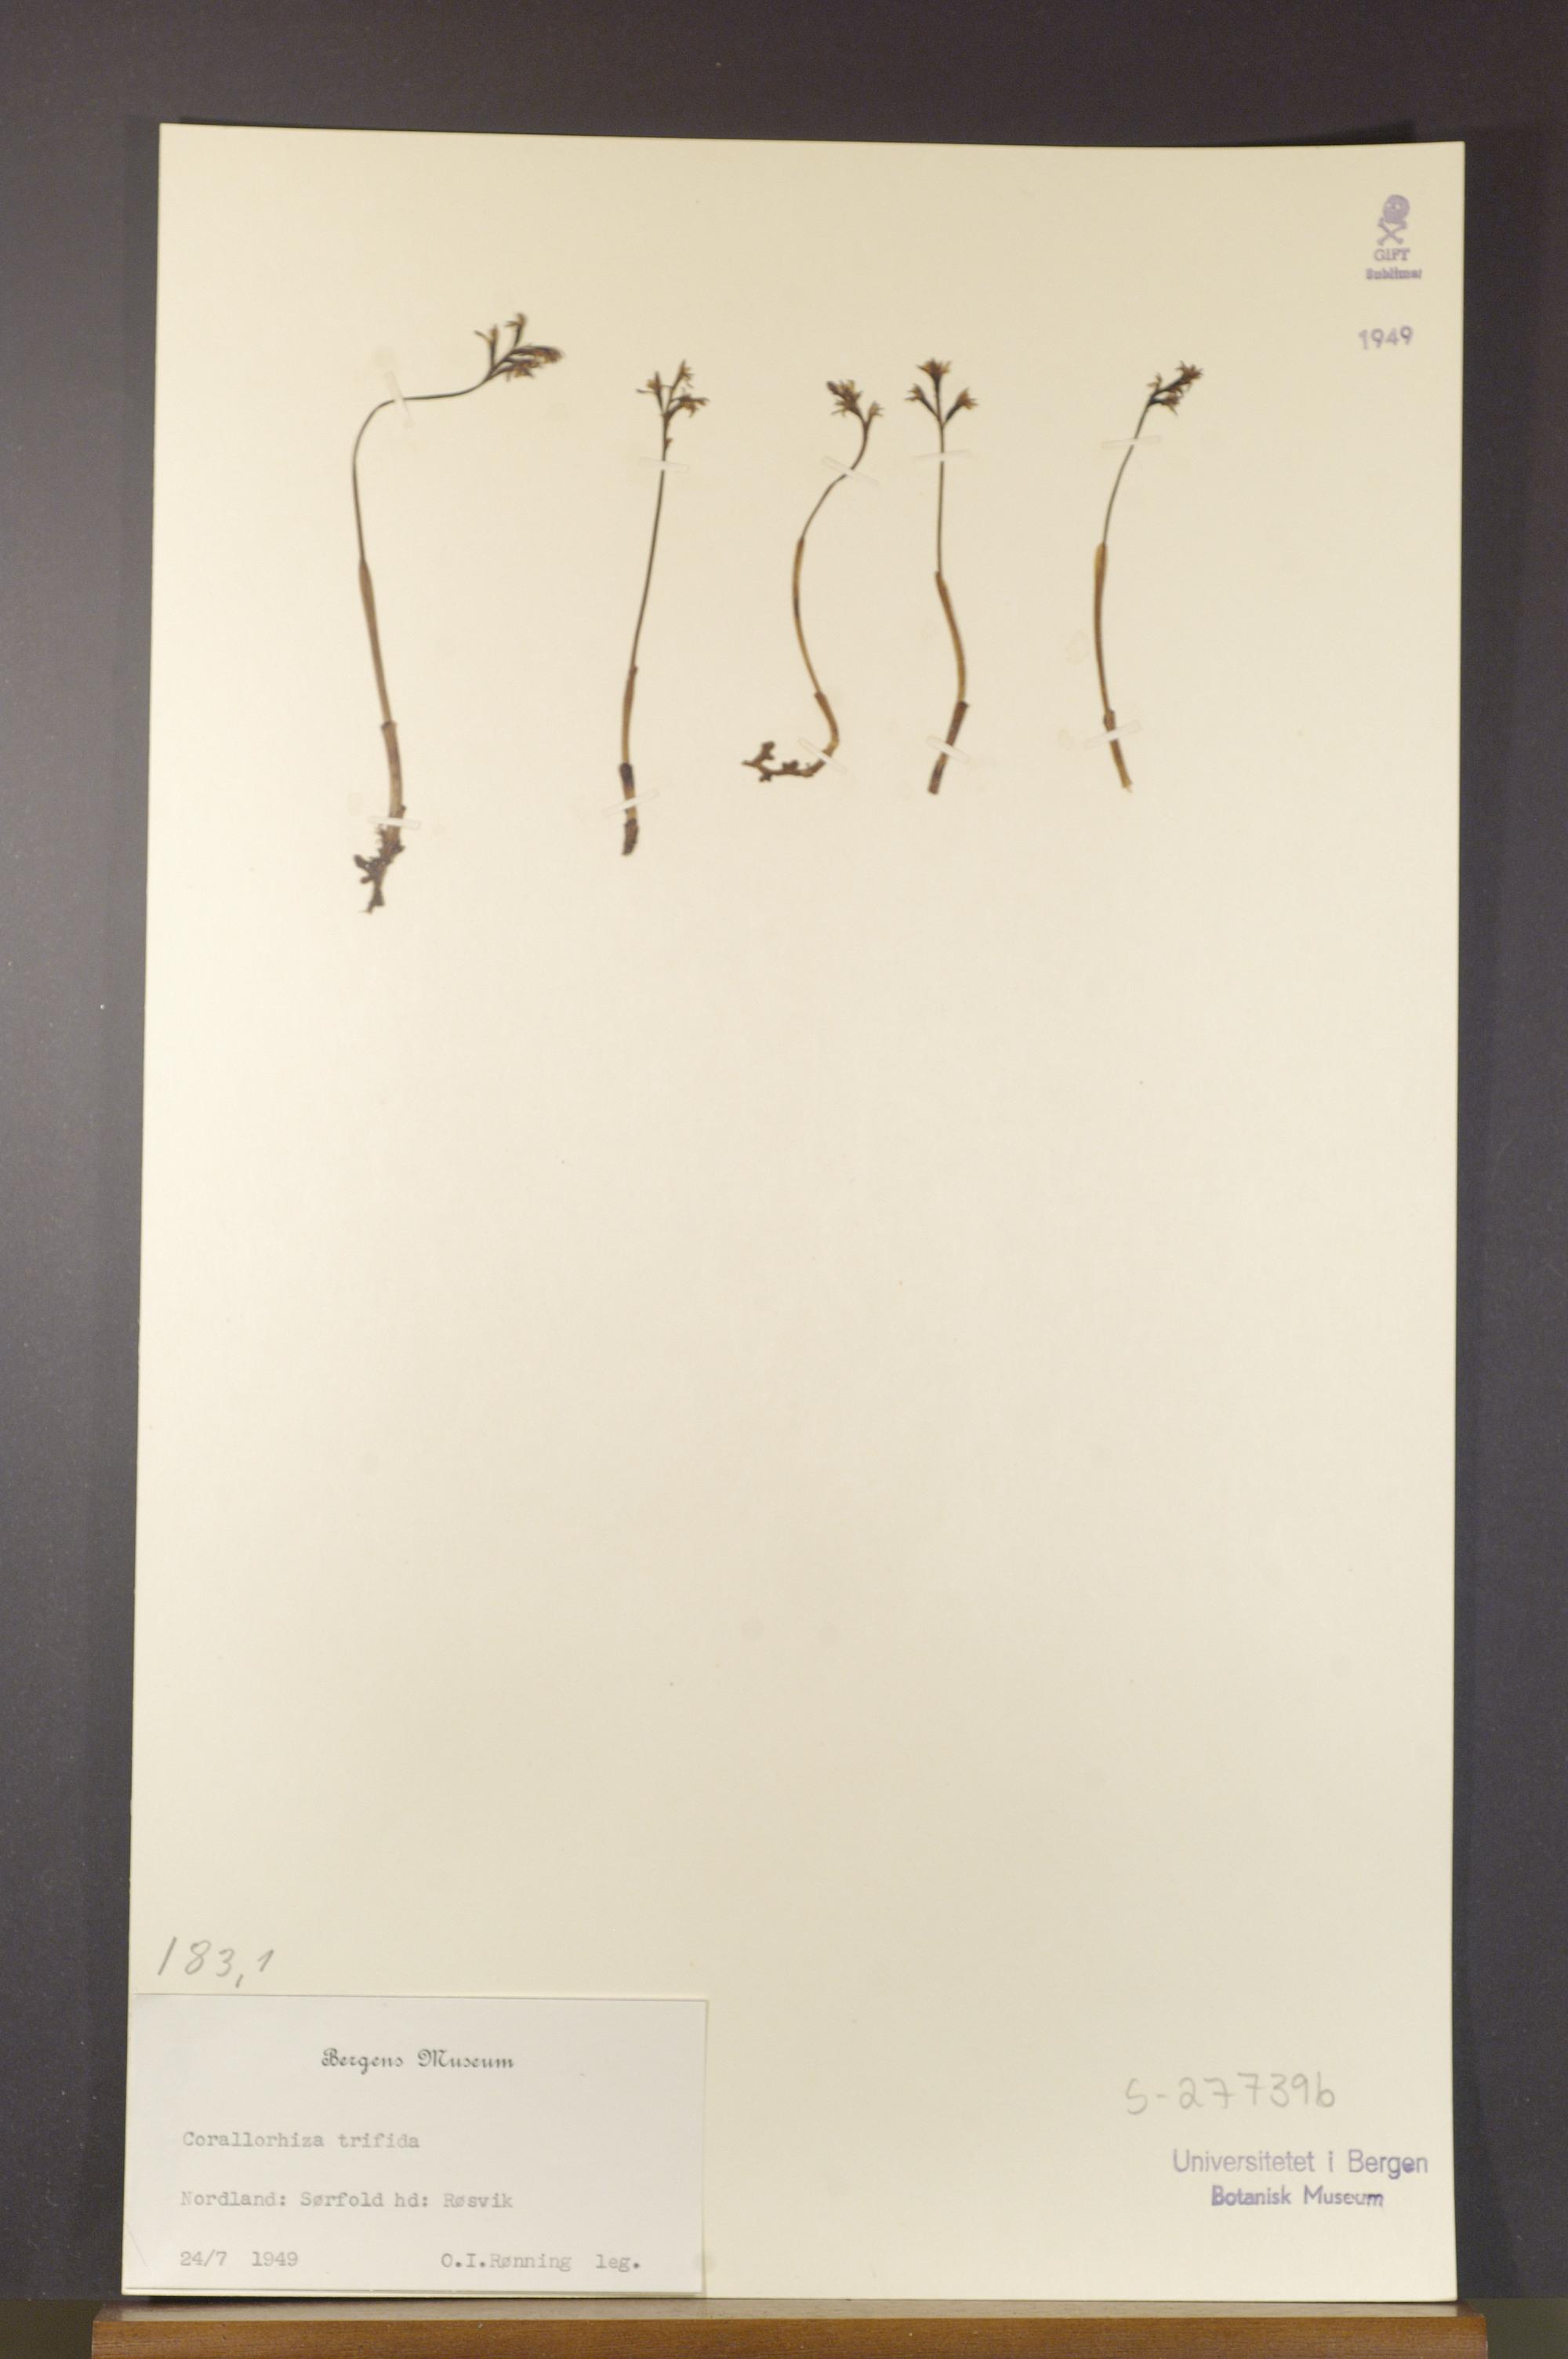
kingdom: Plantae
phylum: Tracheophyta
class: Liliopsida
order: Asparagales
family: Orchidaceae
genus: Corallorhiza
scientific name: Corallorhiza trifida
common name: Yellow coralroot
